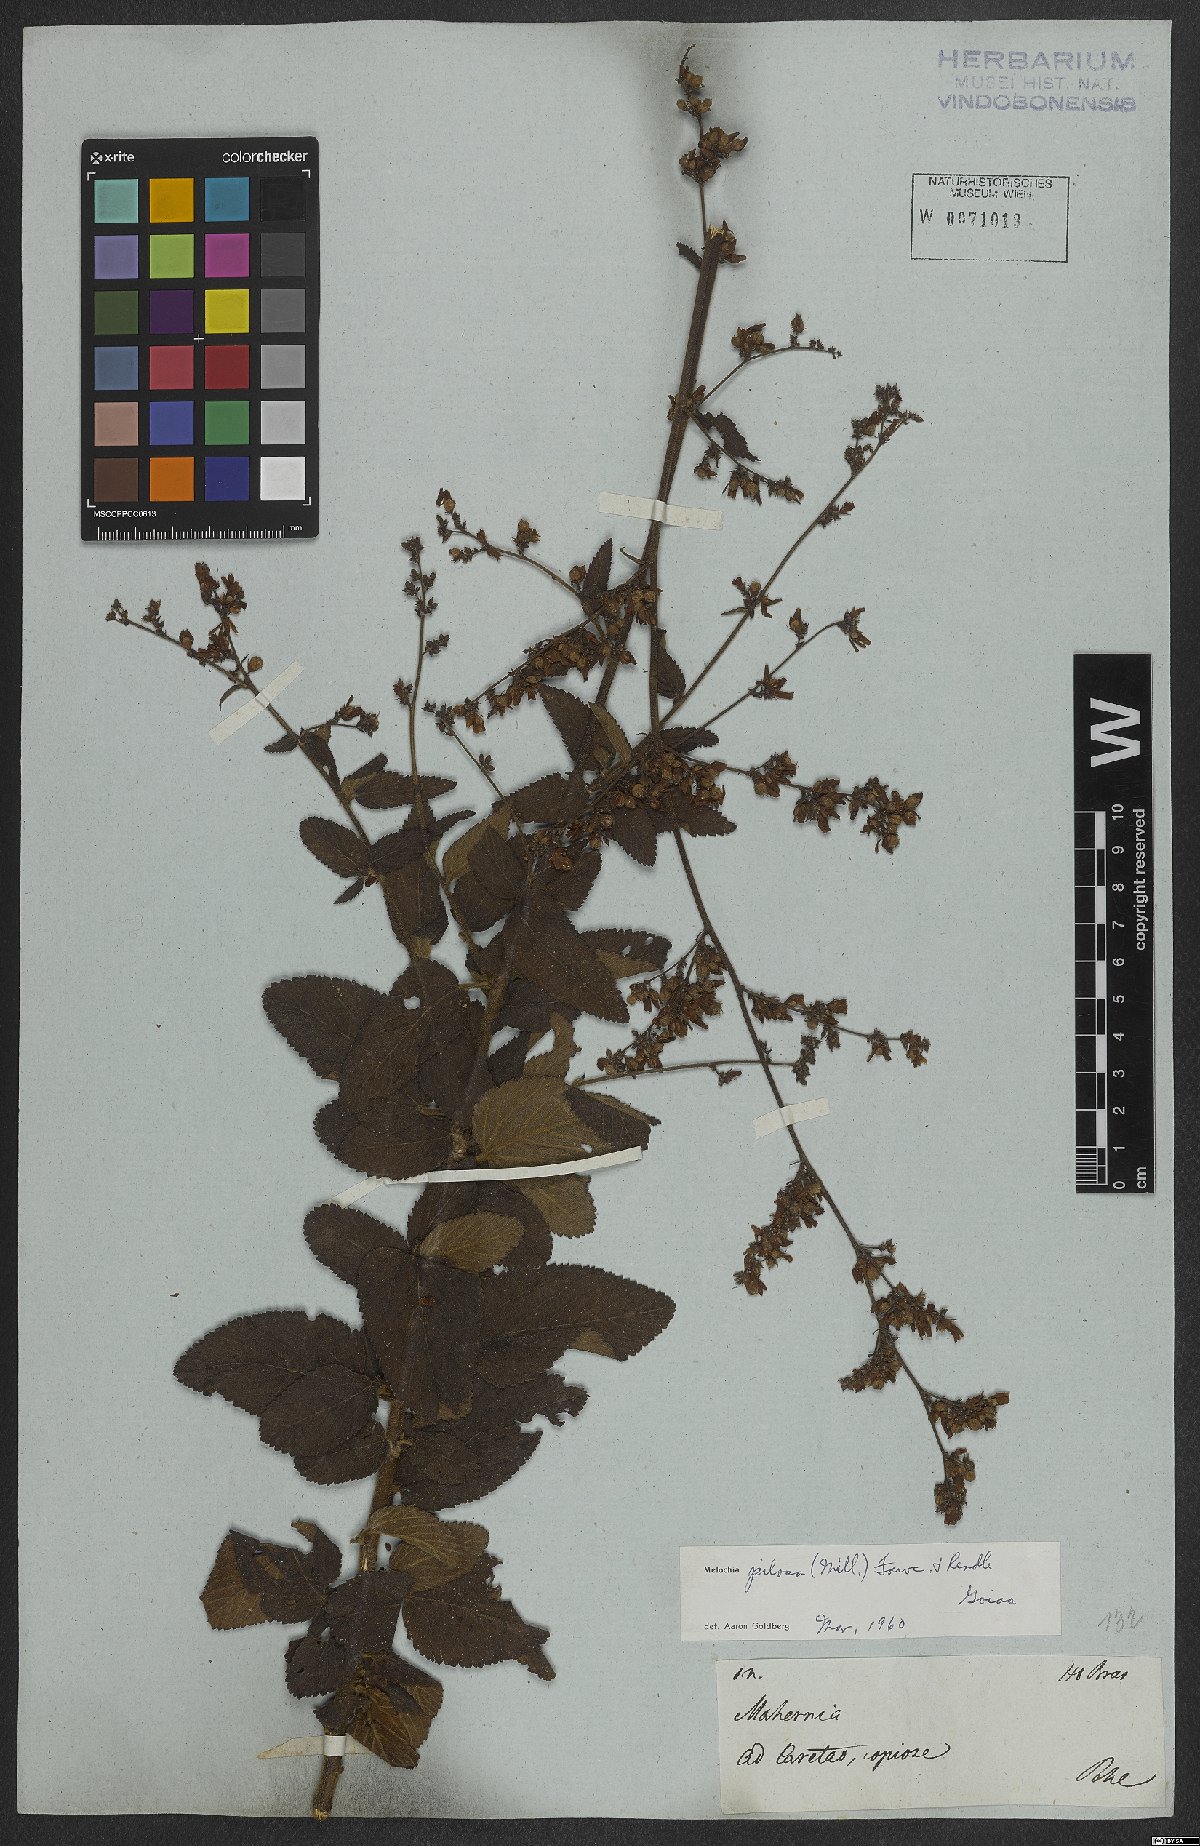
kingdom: Plantae
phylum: Tracheophyta
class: Magnoliopsida
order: Malvales
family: Malvaceae
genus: Melochia
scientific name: Melochia pilosa
